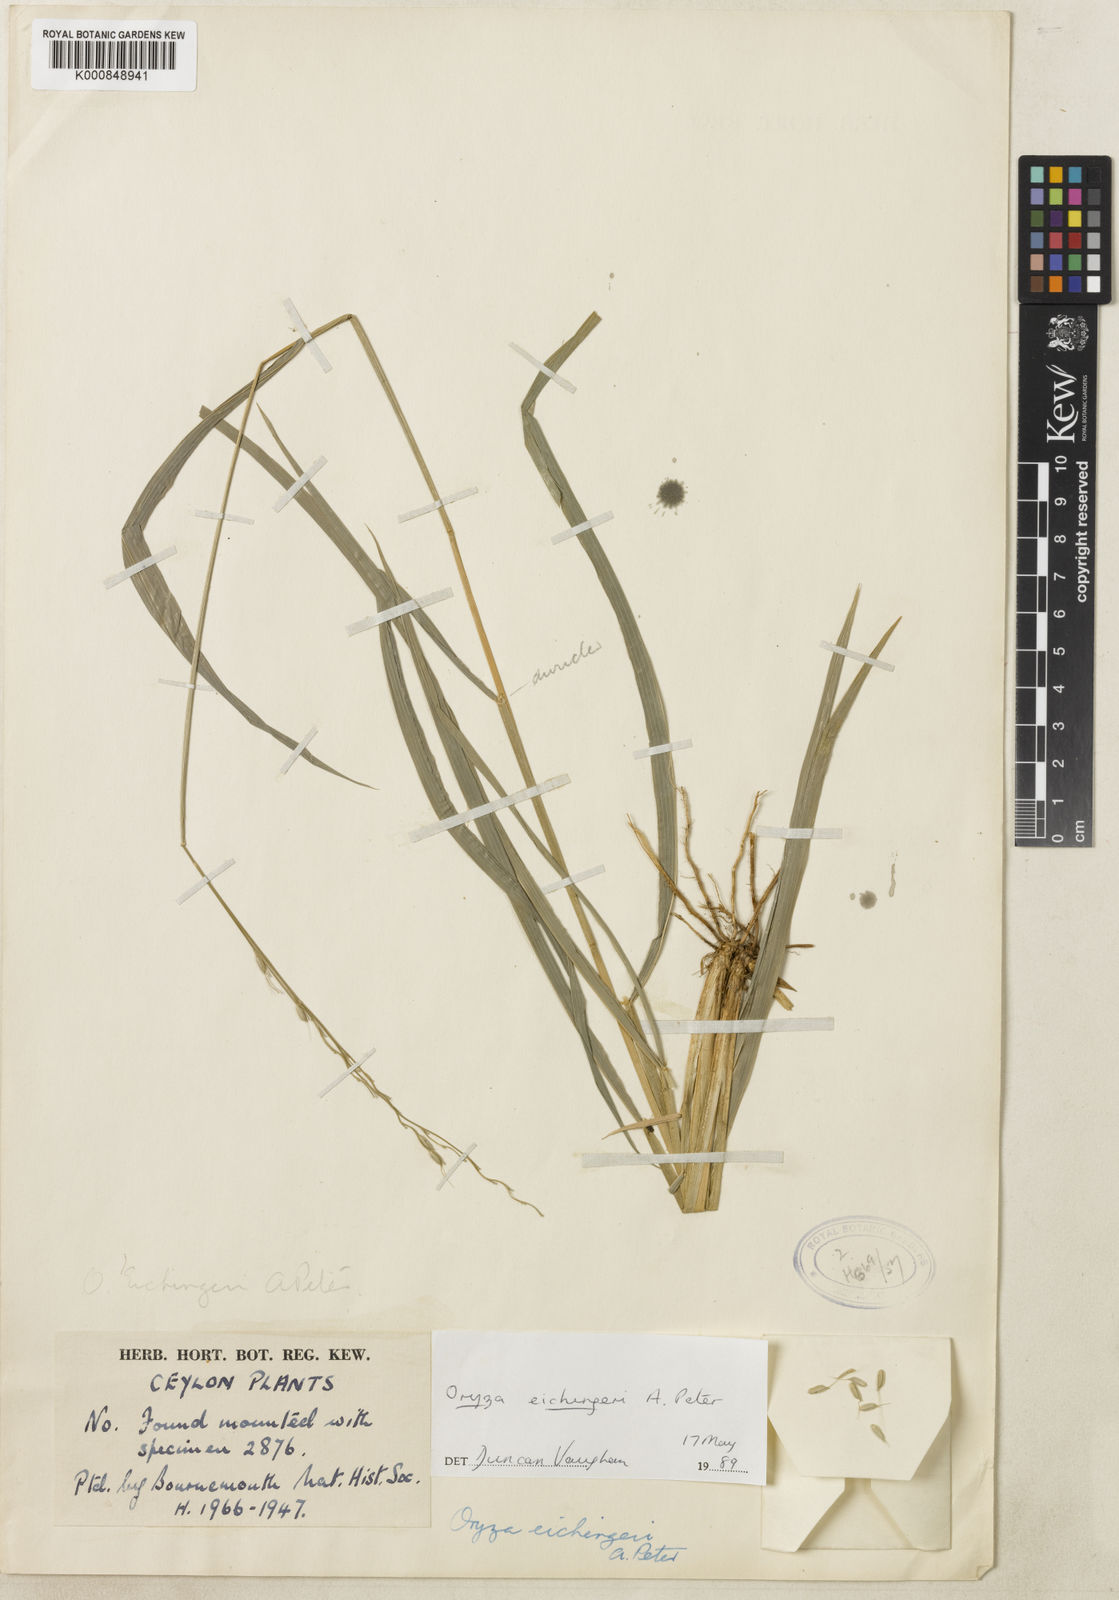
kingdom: Plantae
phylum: Tracheophyta
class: Liliopsida
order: Poales
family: Poaceae
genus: Oryza
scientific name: Oryza eichingeri
